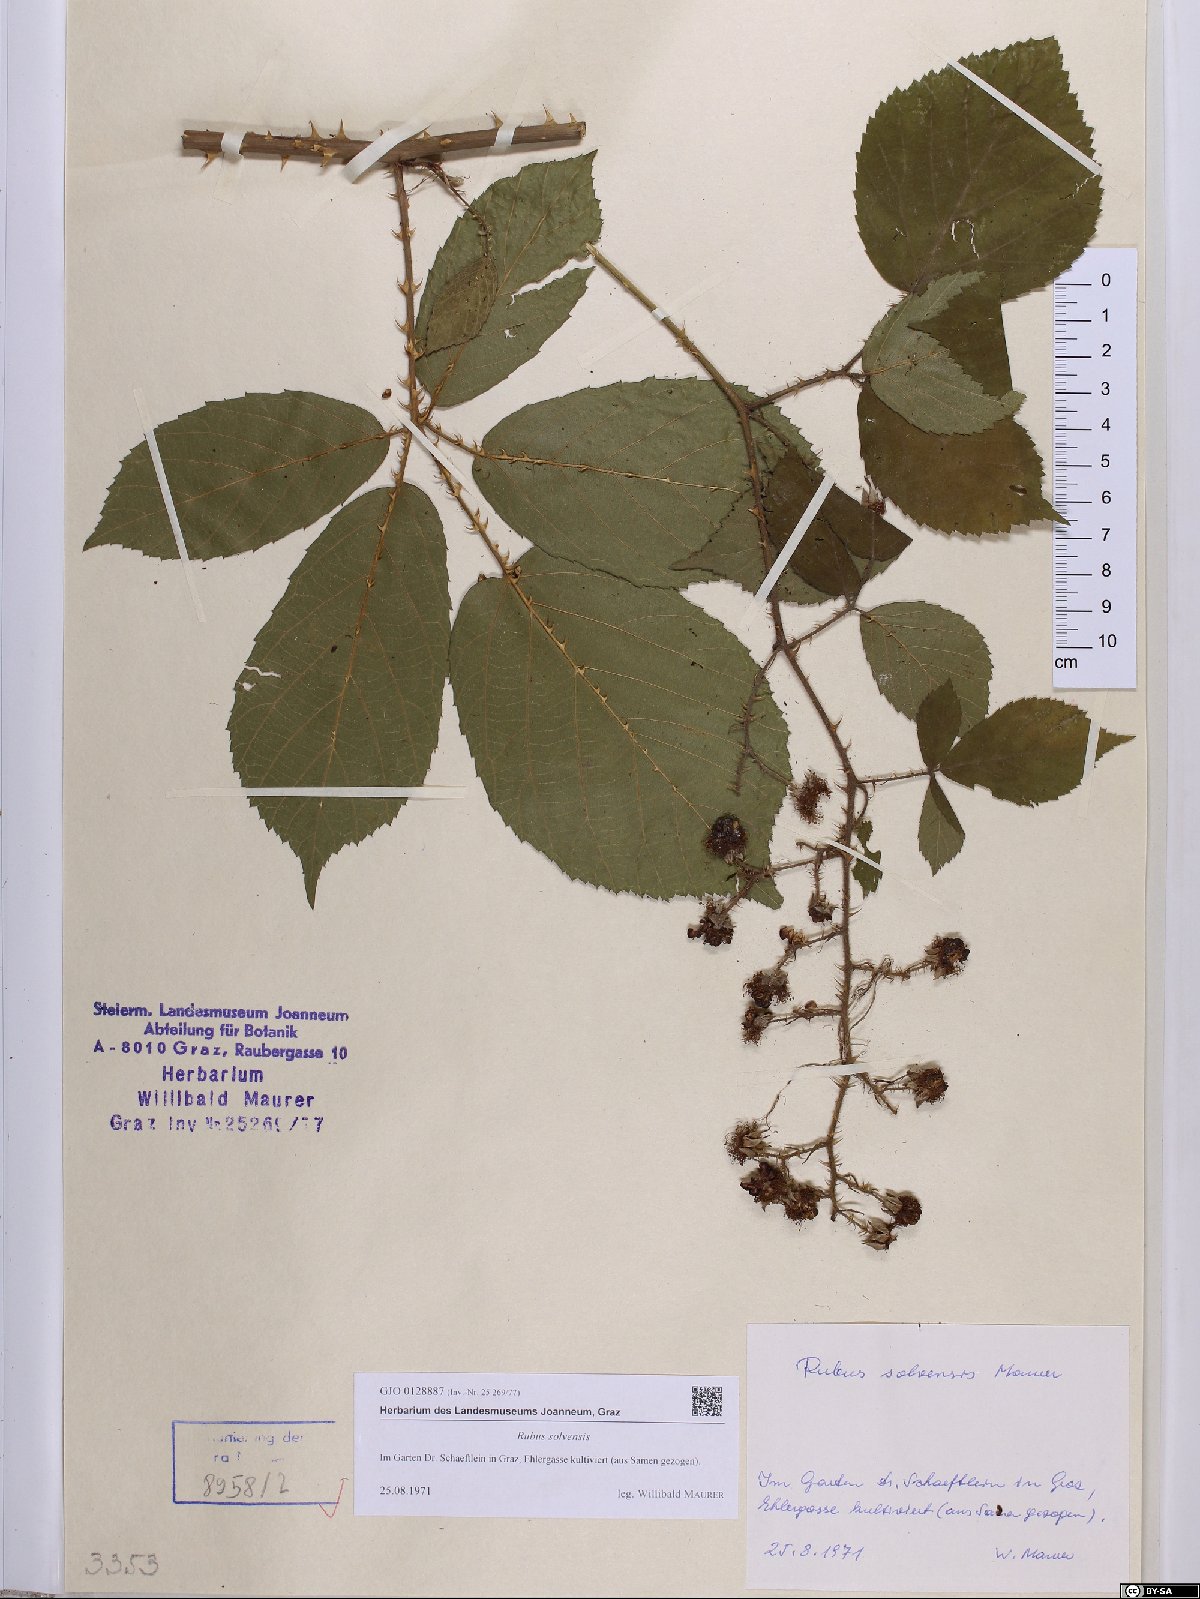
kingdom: Plantae
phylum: Tracheophyta
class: Magnoliopsida
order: Rosales
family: Rosaceae
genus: Rubus
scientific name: Rubus solvensis
